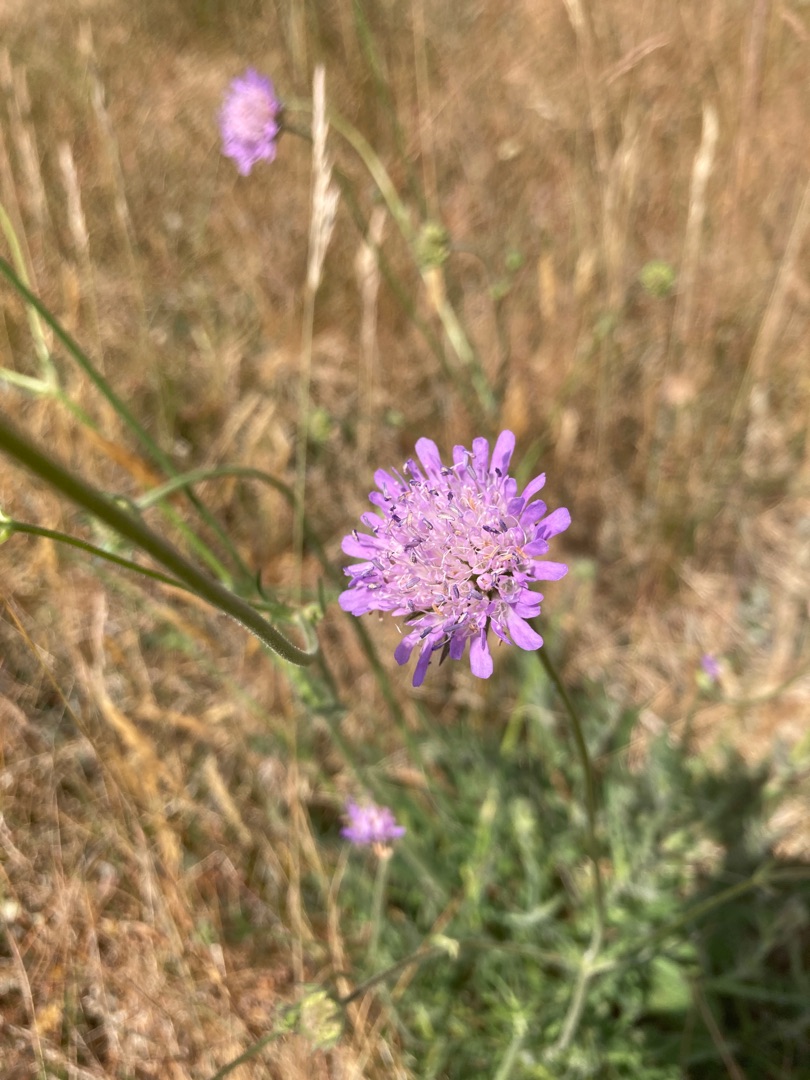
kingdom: Plantae
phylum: Tracheophyta
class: Magnoliopsida
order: Dipsacales
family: Caprifoliaceae
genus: Knautia
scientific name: Knautia arvensis
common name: Blåhat
